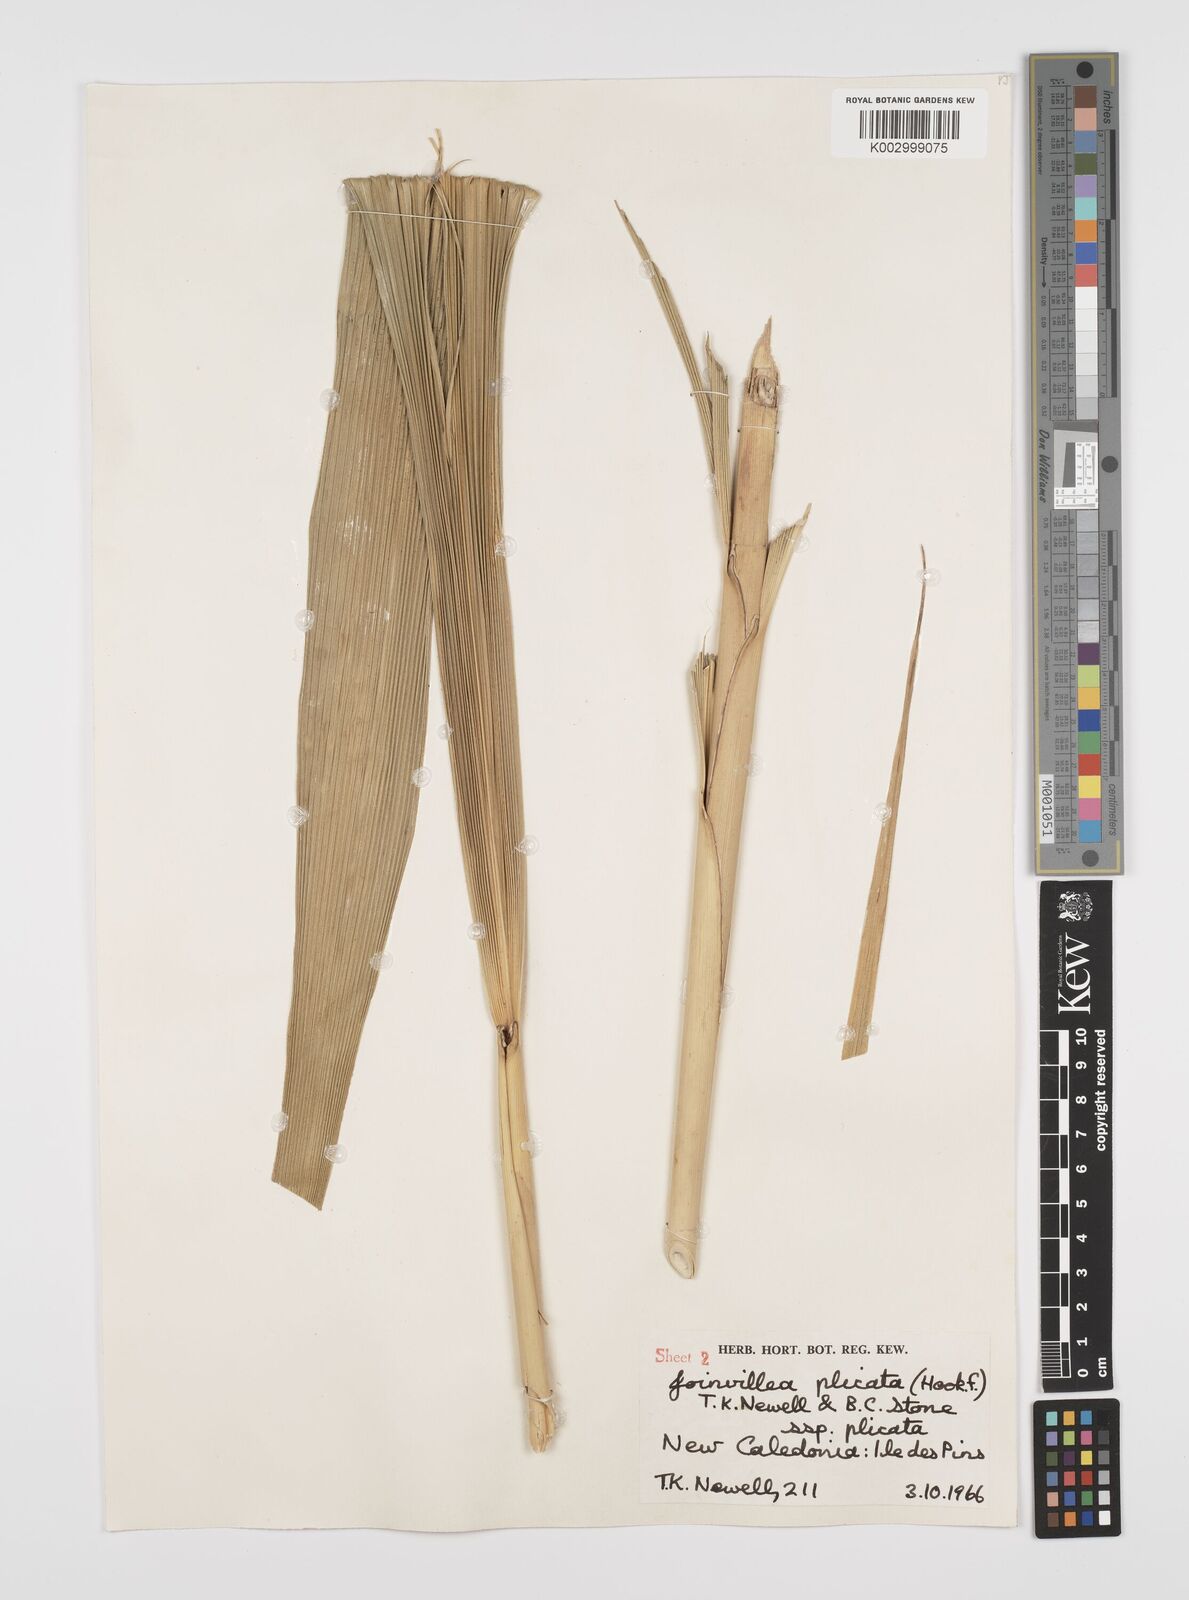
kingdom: Plantae
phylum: Tracheophyta
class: Liliopsida
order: Poales
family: Joinvilleaceae
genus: Joinvillea
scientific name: Joinvillea plicata
